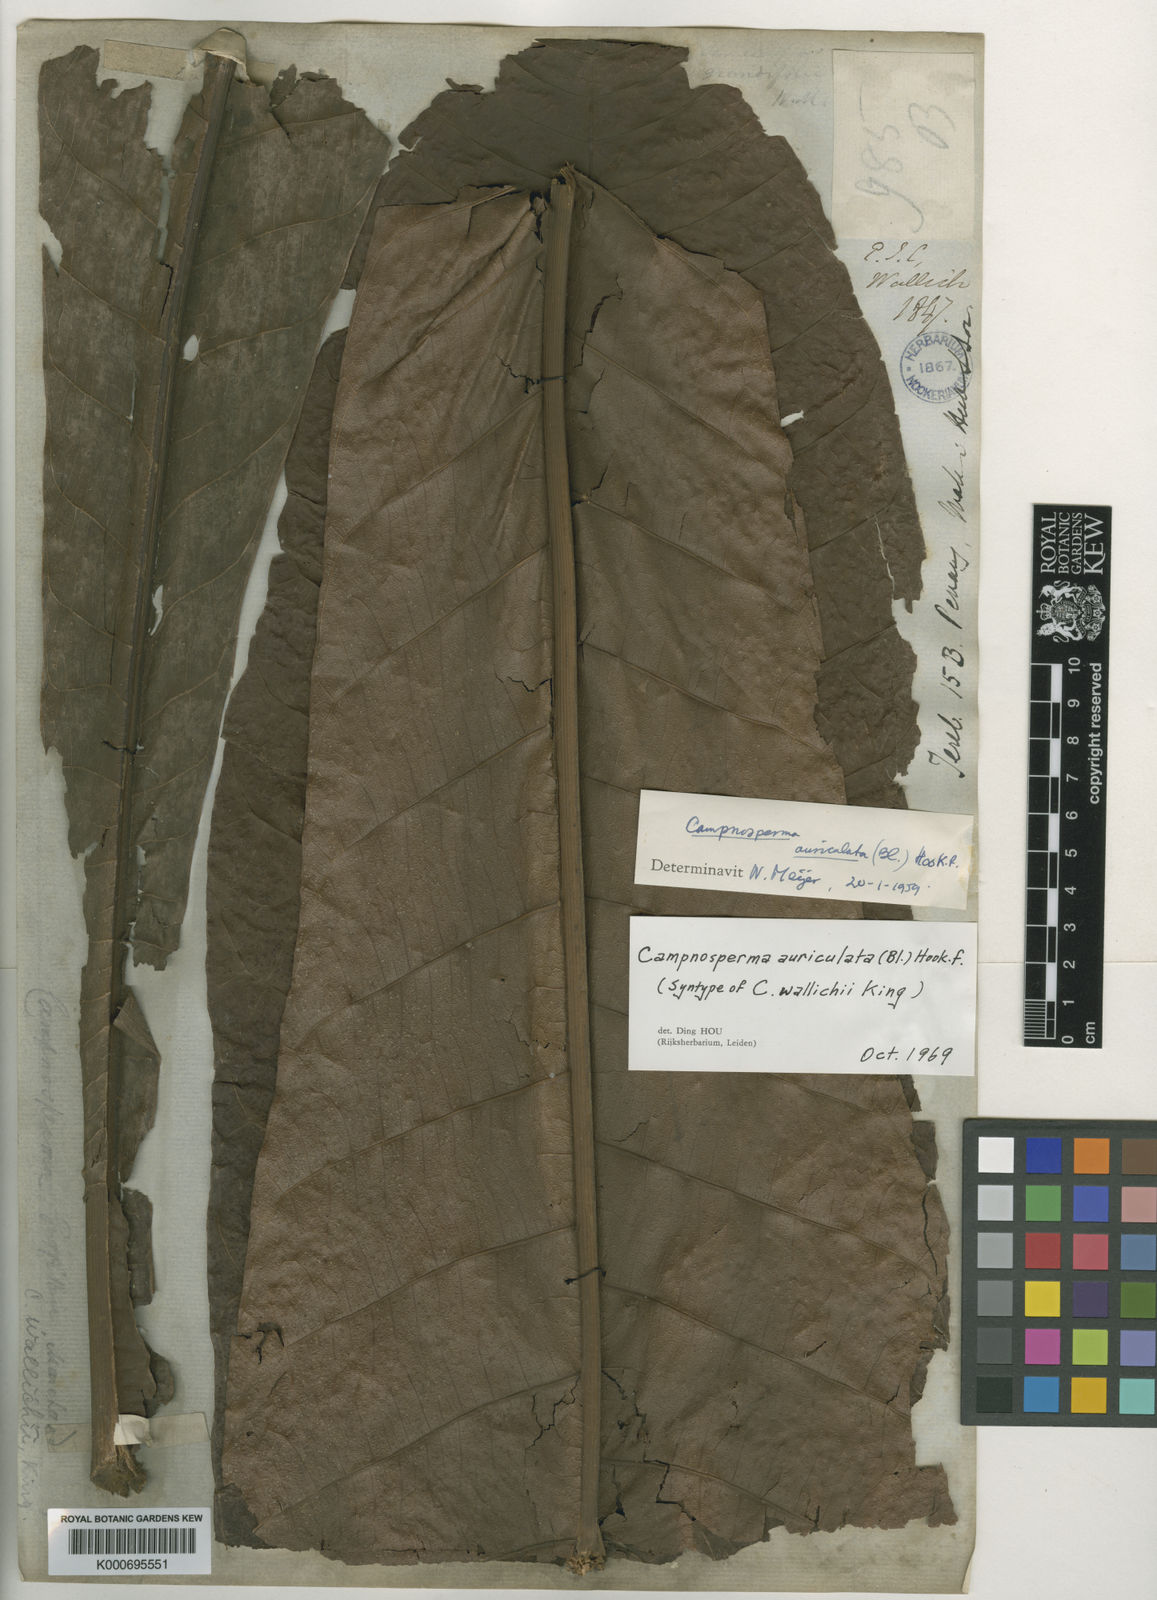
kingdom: Plantae
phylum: Tracheophyta
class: Magnoliopsida
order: Sapindales
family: Anacardiaceae
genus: Campnosperma
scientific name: Campnosperma auriculatum
